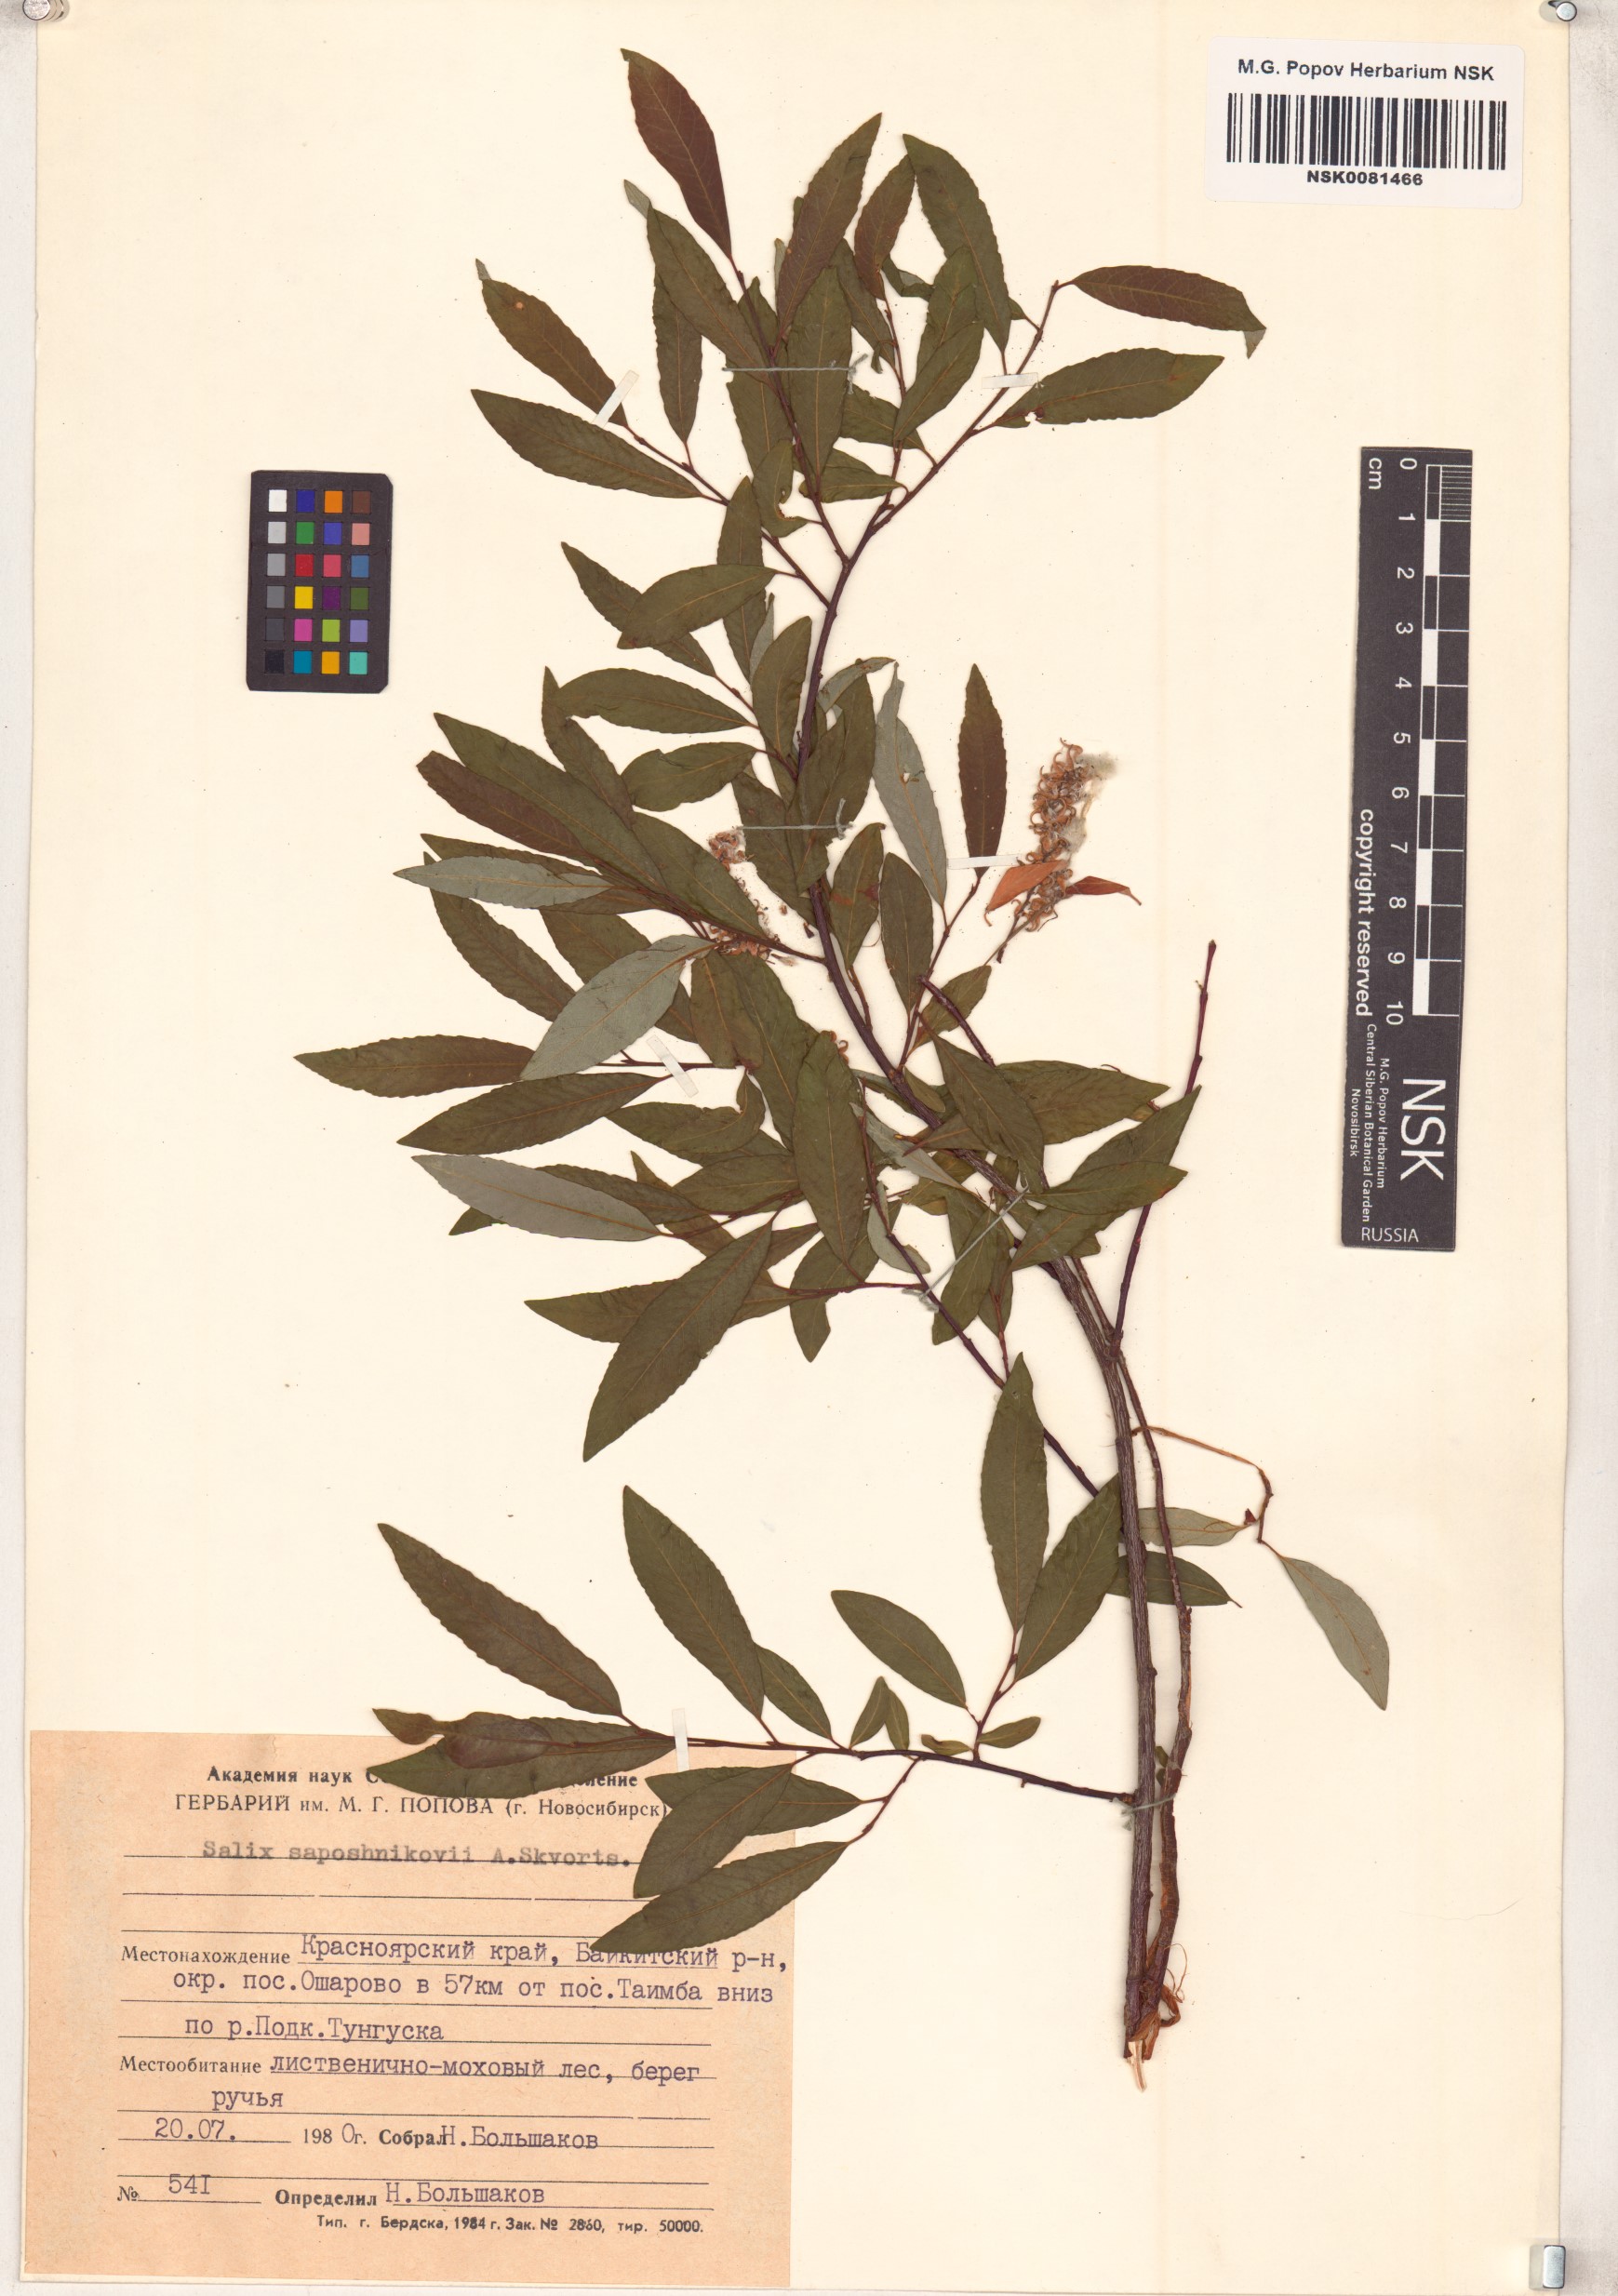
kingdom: Plantae
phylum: Tracheophyta
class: Magnoliopsida
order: Malpighiales
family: Salicaceae
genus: Salix
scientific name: Salix saposhnikovii
